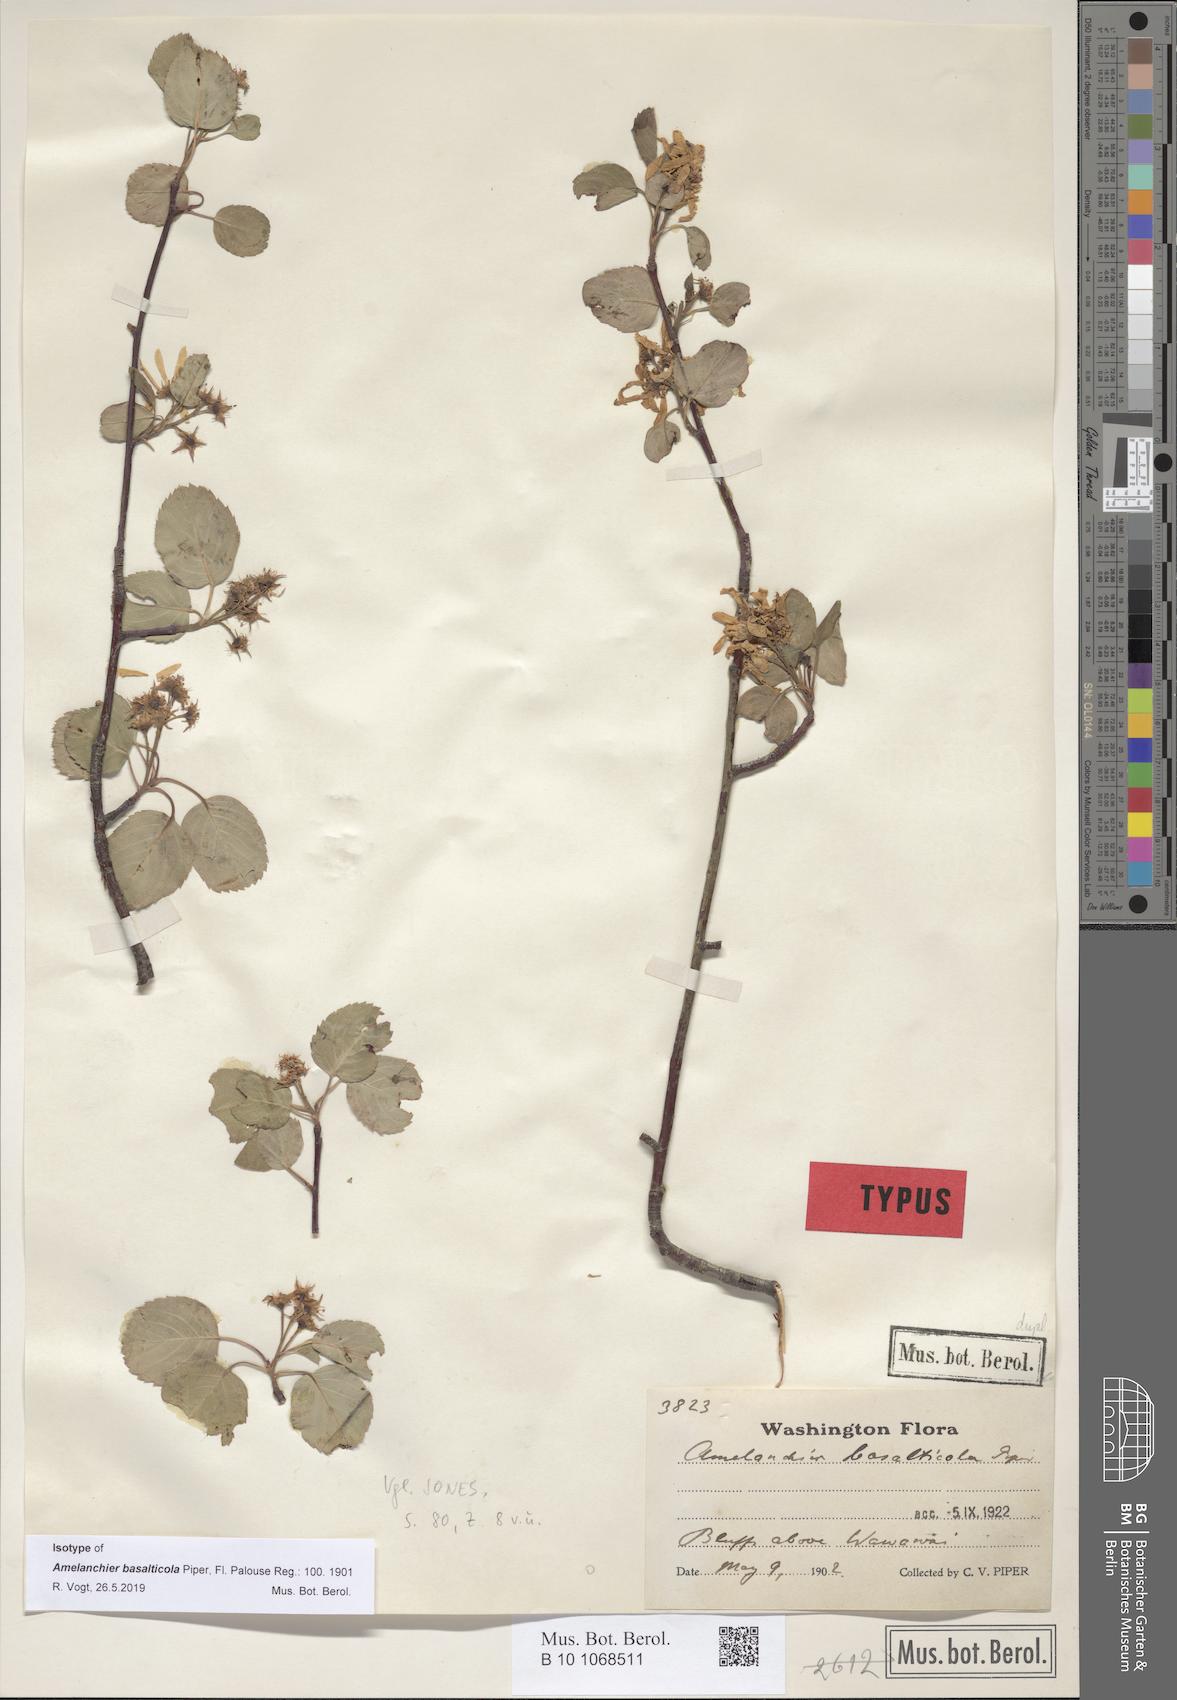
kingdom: Plantae
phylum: Tracheophyta
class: Magnoliopsida
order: Rosales
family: Rosaceae
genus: Amelanchier
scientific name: Amelanchier pumila
